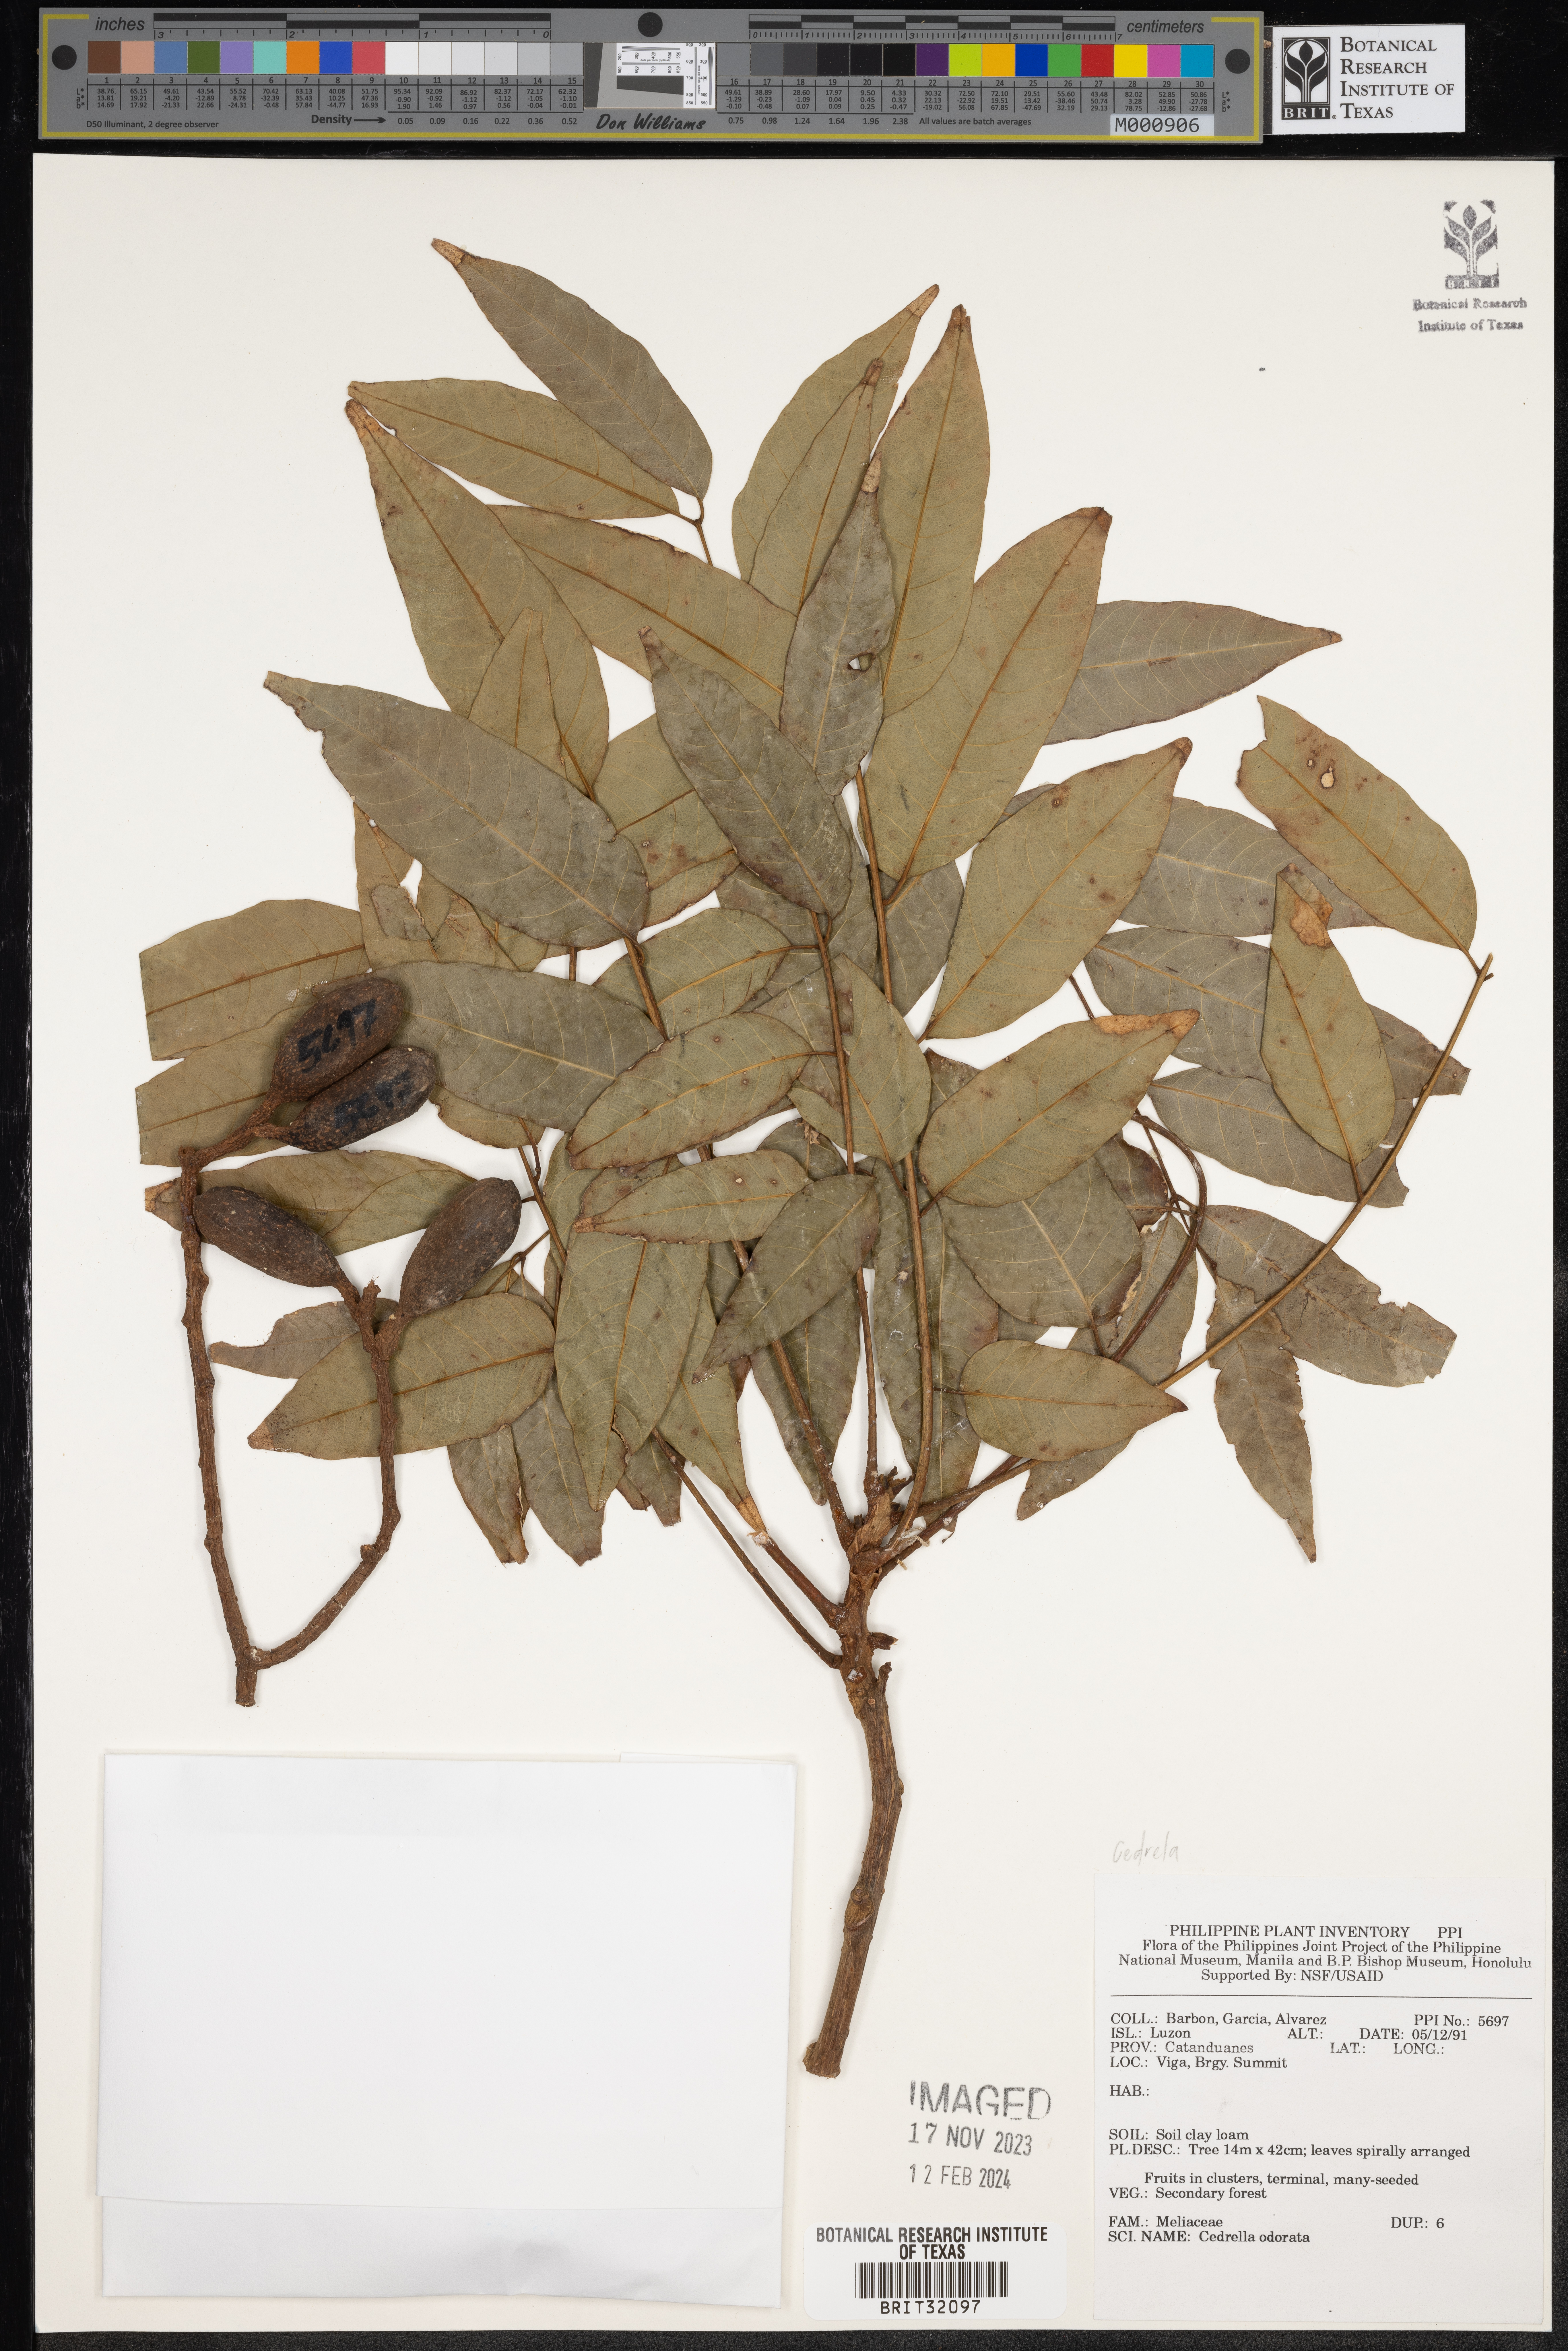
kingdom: Plantae
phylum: Tracheophyta
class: Magnoliopsida
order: Sapindales
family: Meliaceae
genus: Cedrela
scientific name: Cedrela odorata
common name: Red cedar
